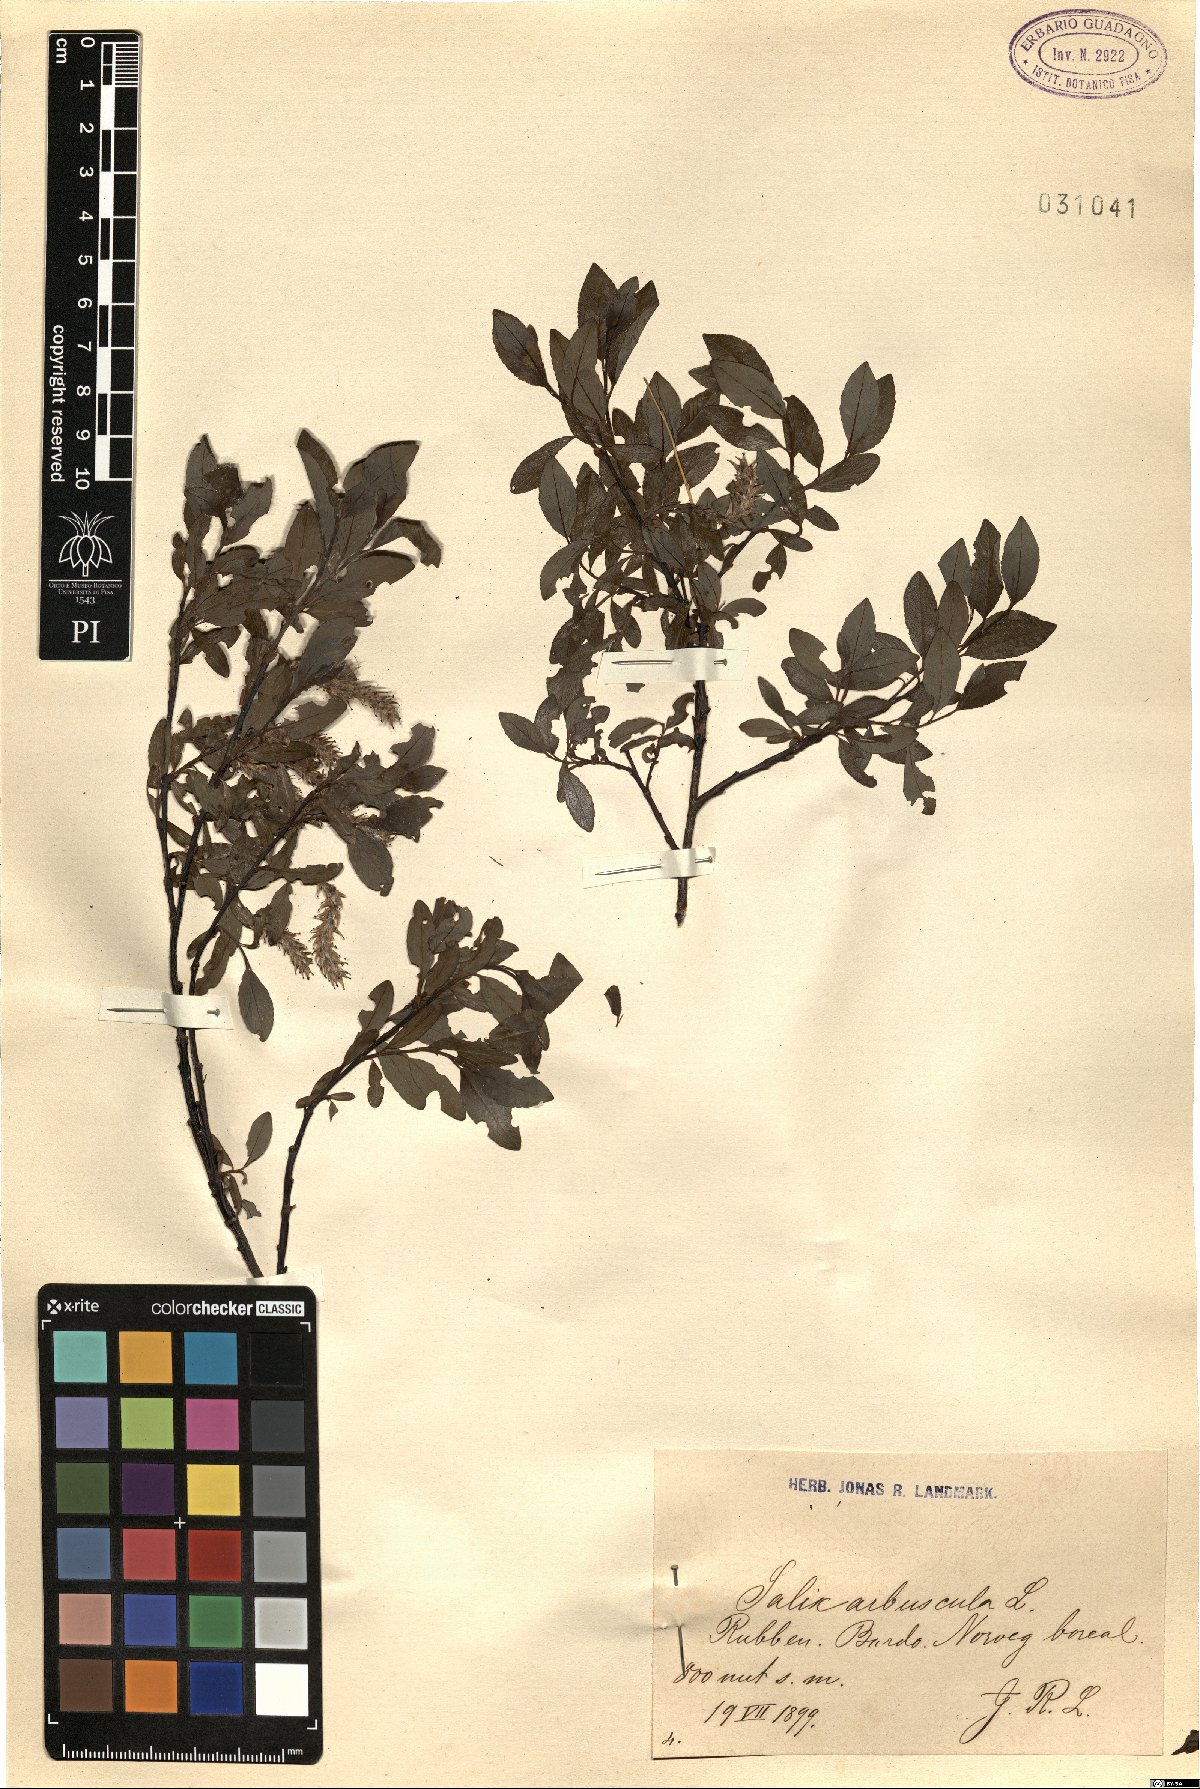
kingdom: Plantae
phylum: Tracheophyta
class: Magnoliopsida
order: Malpighiales
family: Salicaceae
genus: Salix
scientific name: Salix arbuscula
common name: Mountain willow
